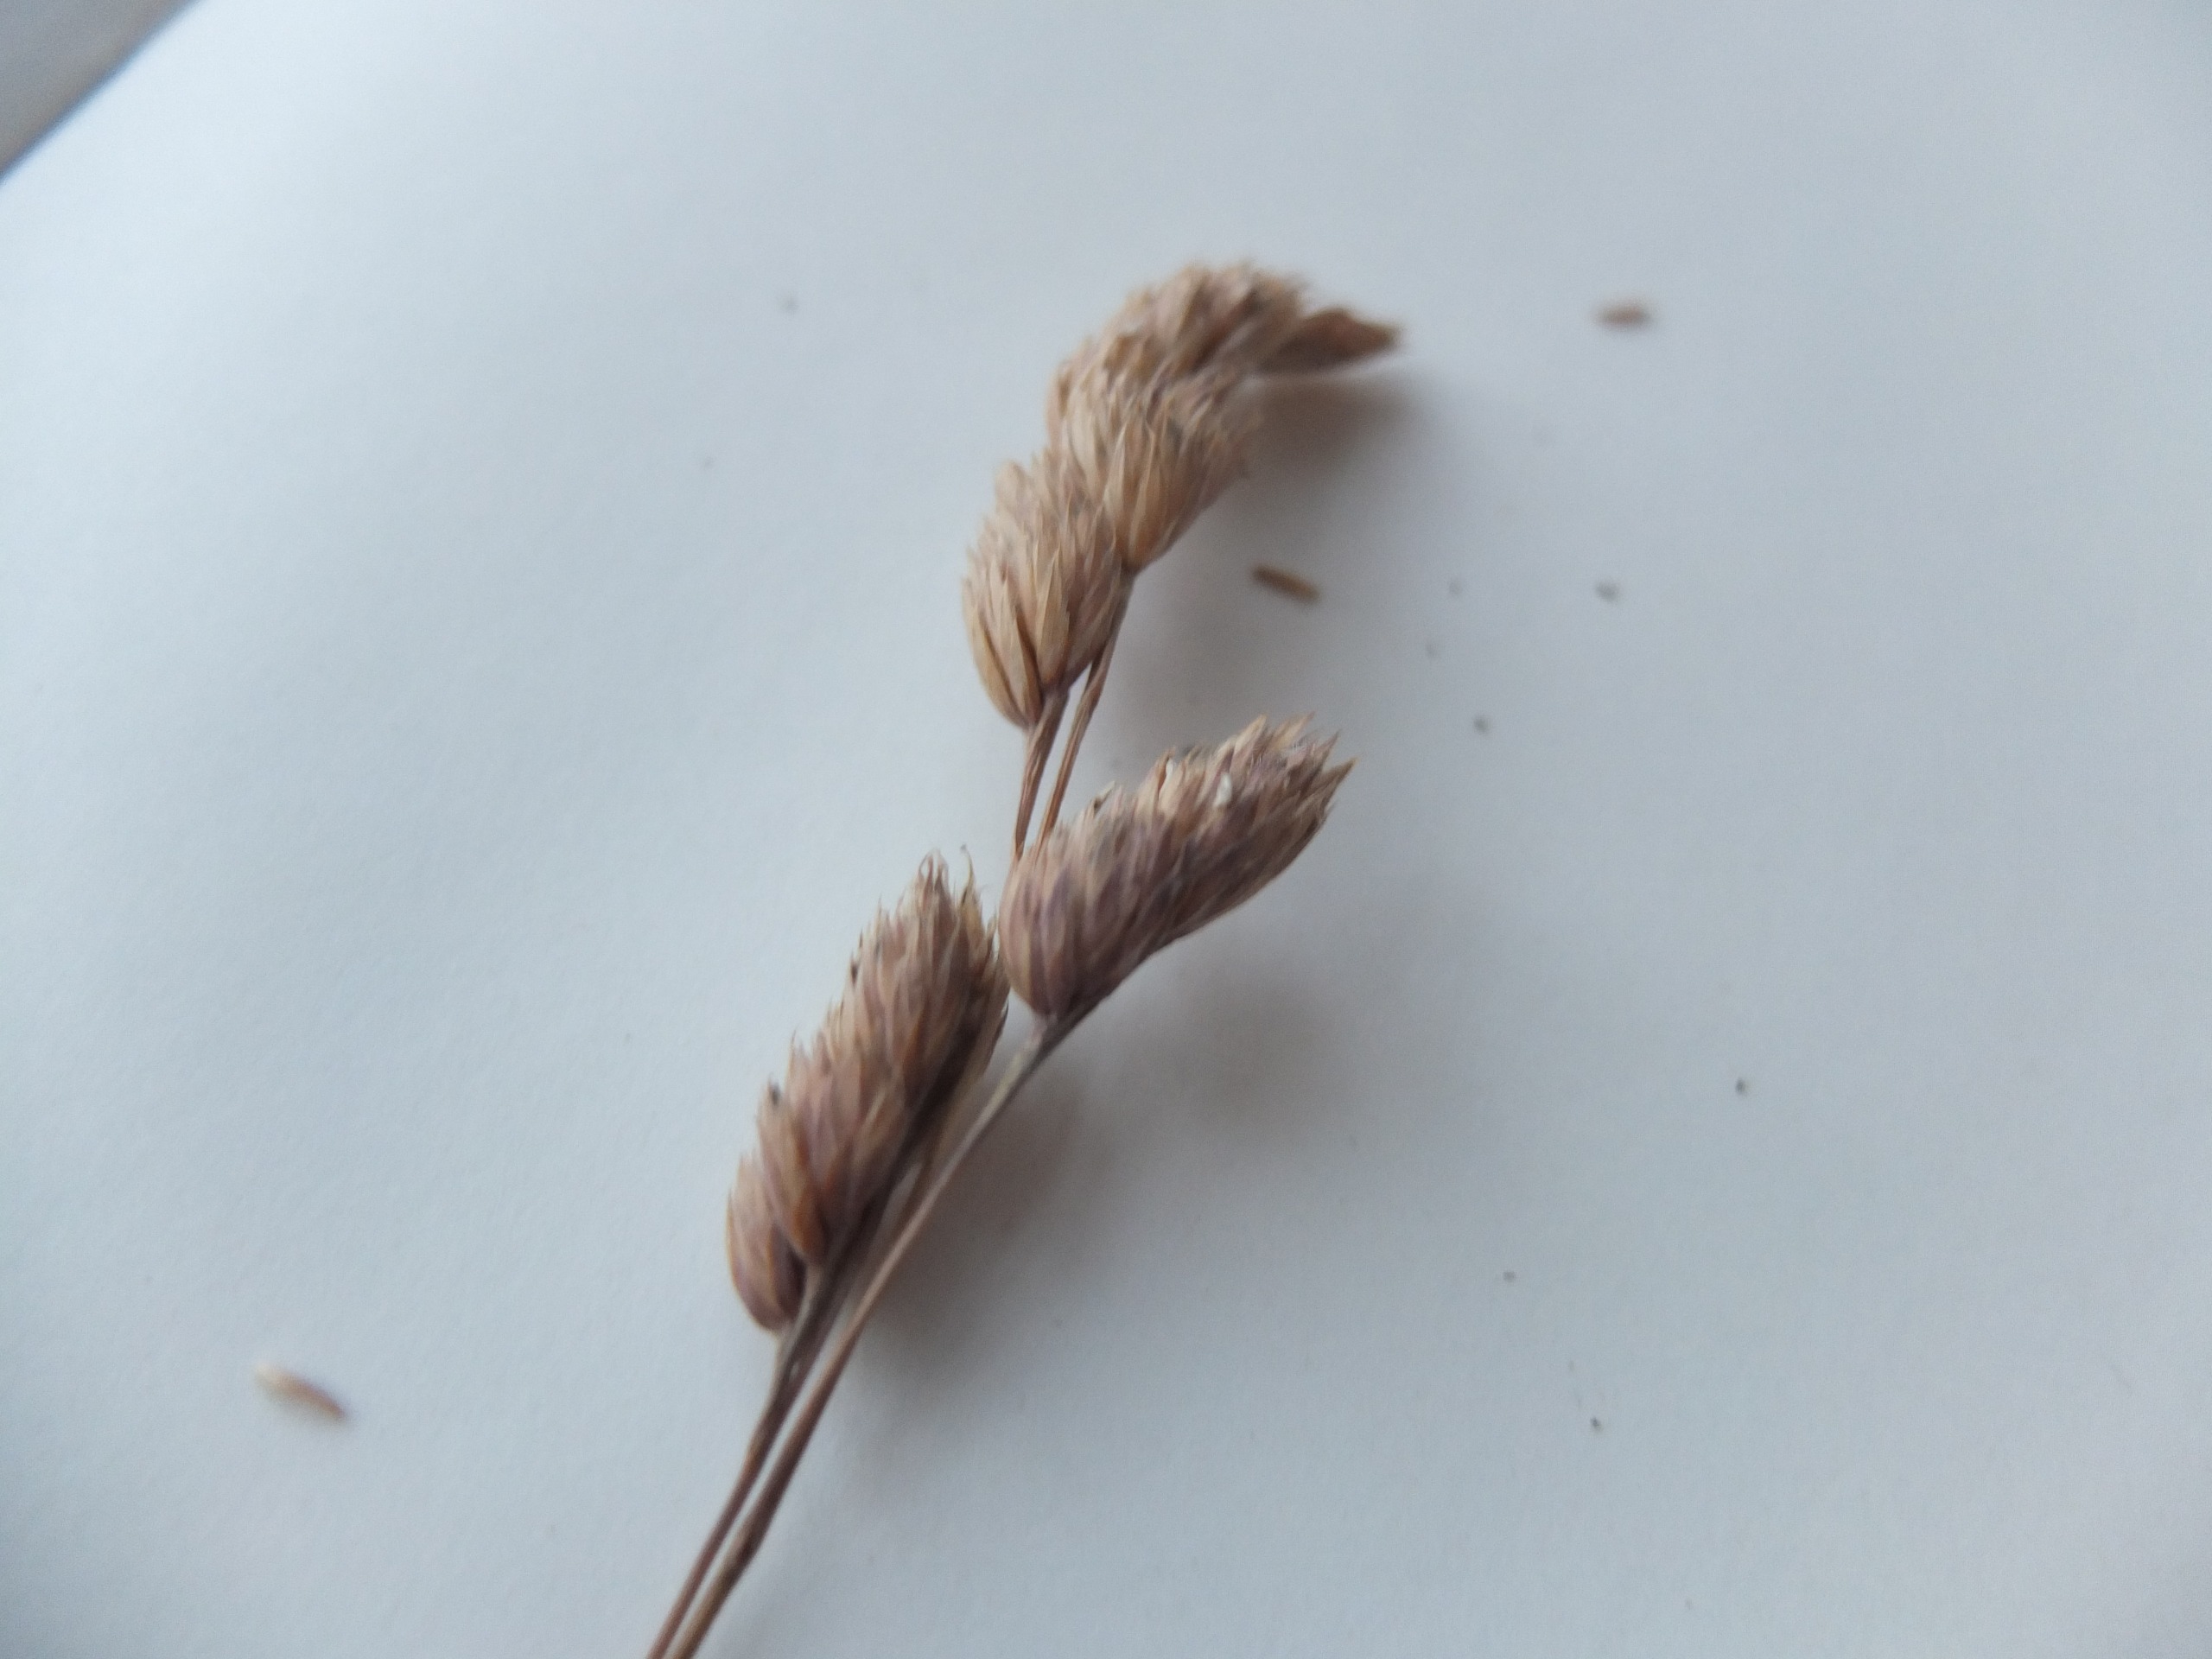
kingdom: Plantae
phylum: Tracheophyta
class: Liliopsida
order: Poales
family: Poaceae
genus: Dactylis
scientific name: Dactylis glomerata
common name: Almindelig hundegræs
